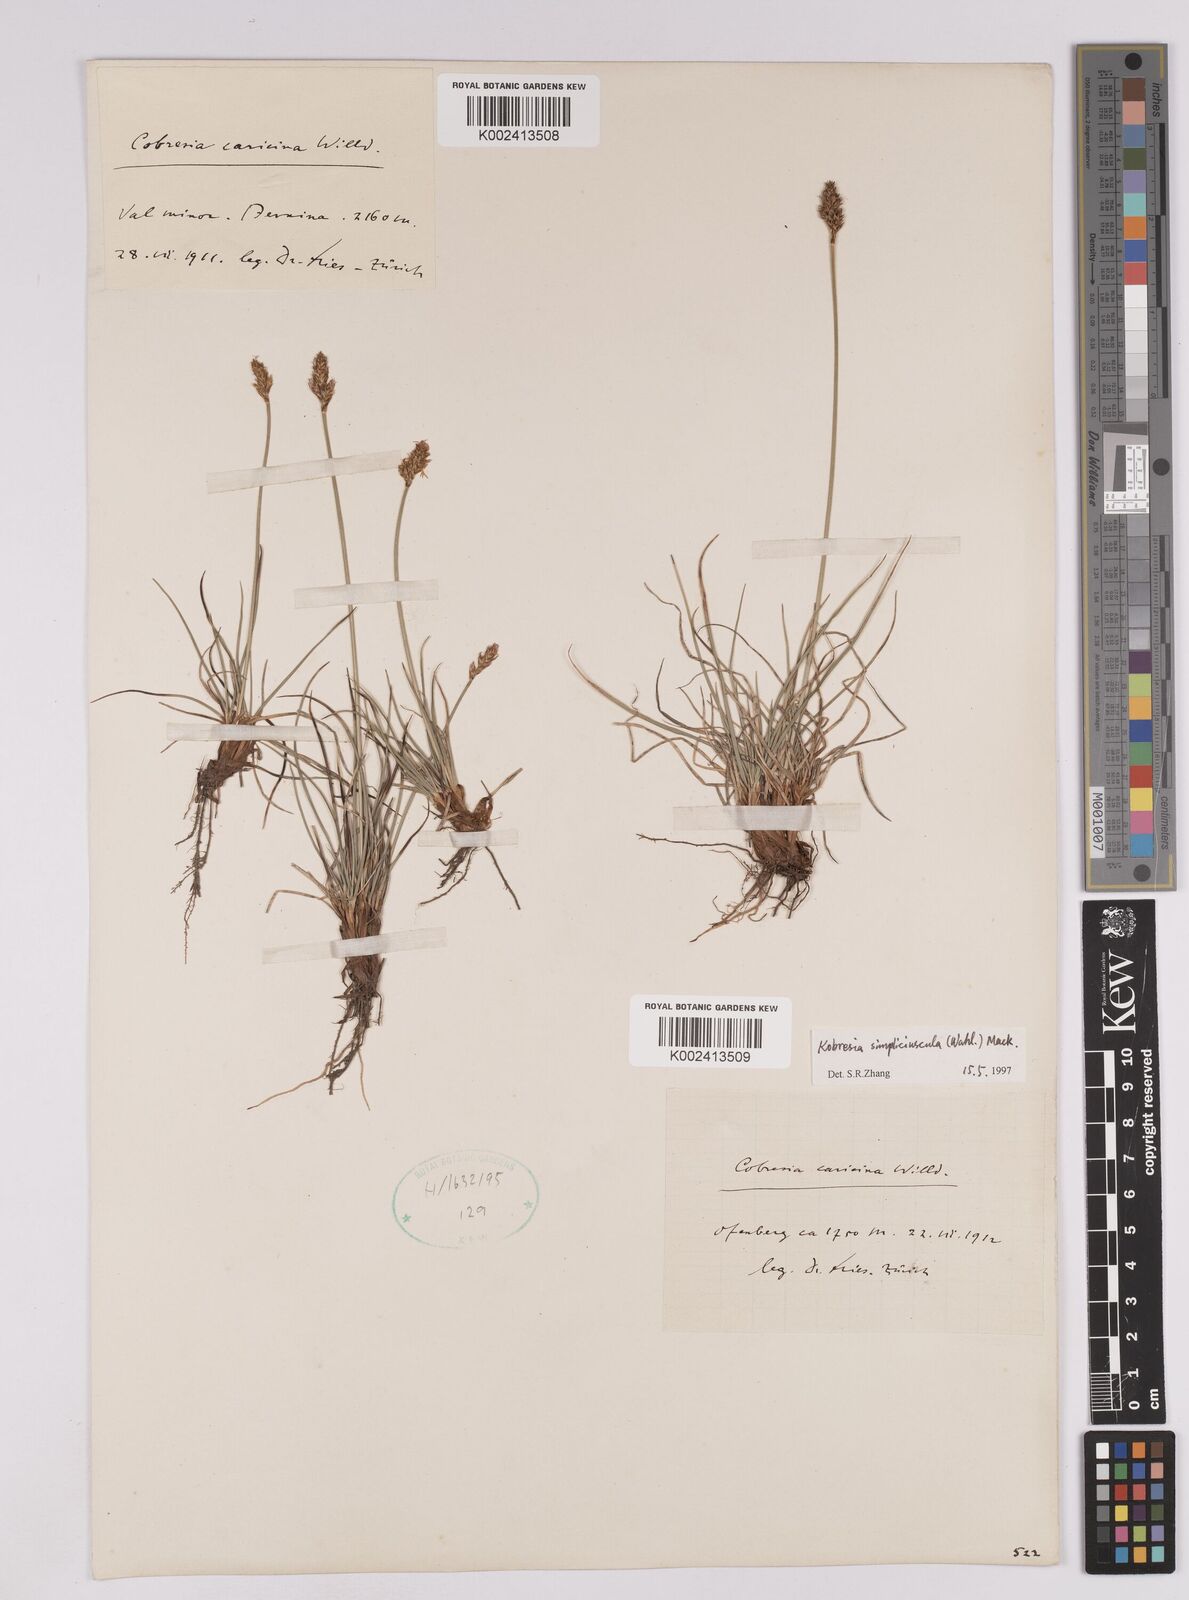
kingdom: Plantae
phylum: Tracheophyta
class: Liliopsida
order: Poales
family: Cyperaceae
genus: Carex
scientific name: Carex simpliciuscula
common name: Simple bog sedge
